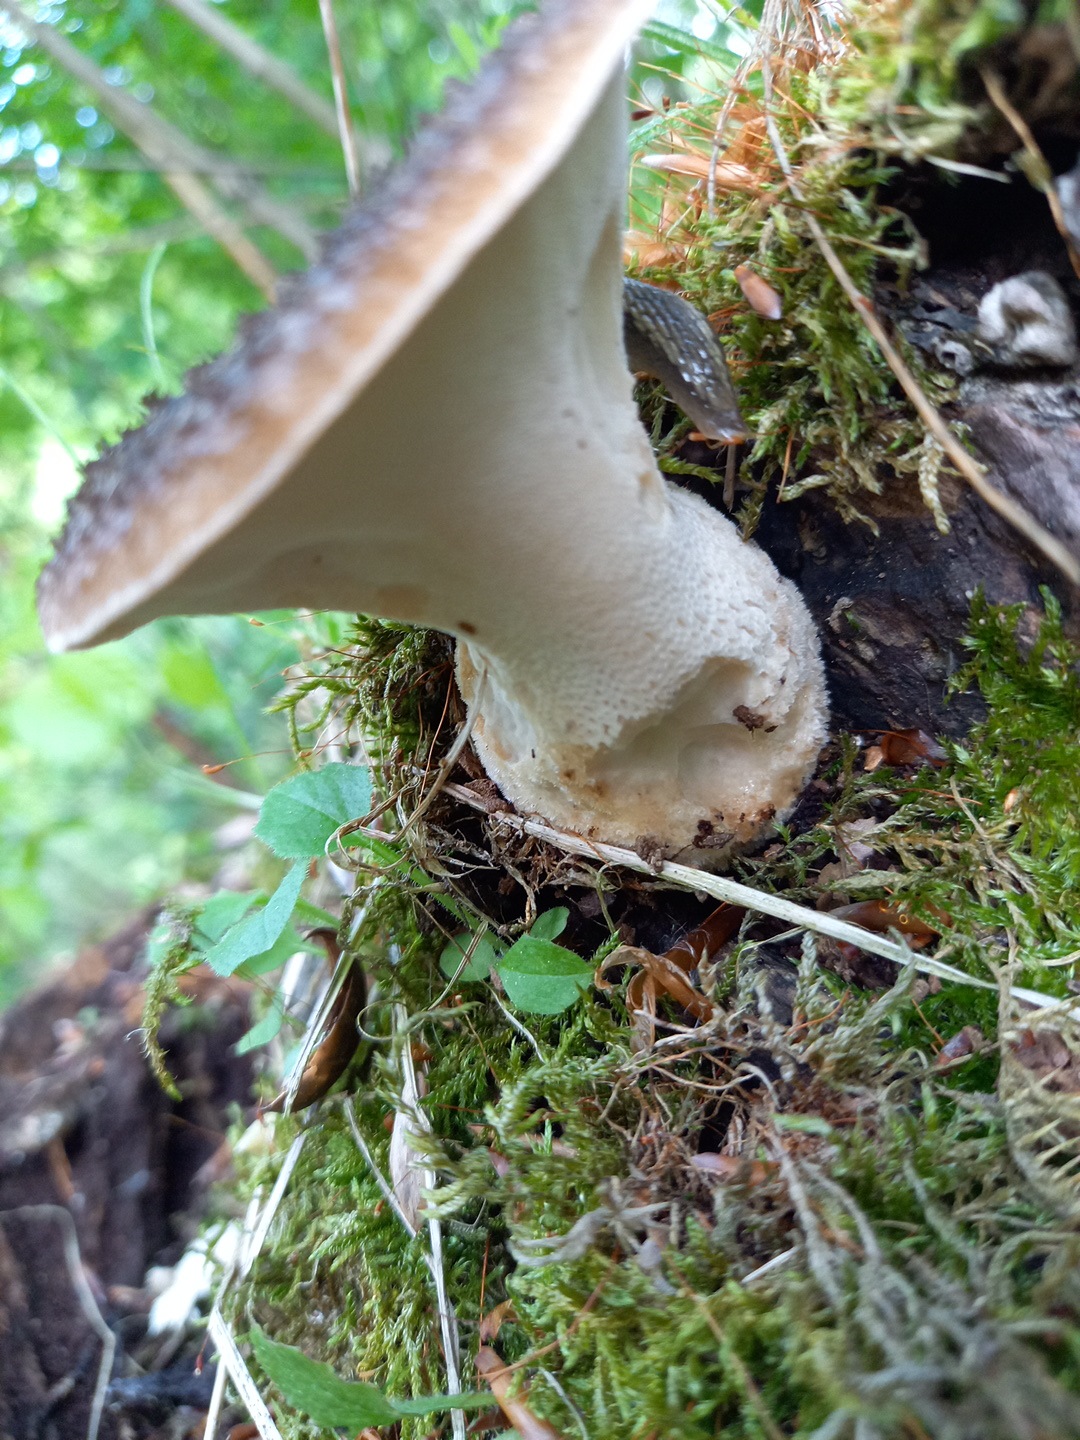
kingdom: Fungi
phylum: Basidiomycota
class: Agaricomycetes
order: Polyporales
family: Polyporaceae
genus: Polyporus
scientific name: Polyporus tuberaster
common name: knoldet stilkporesvamp
